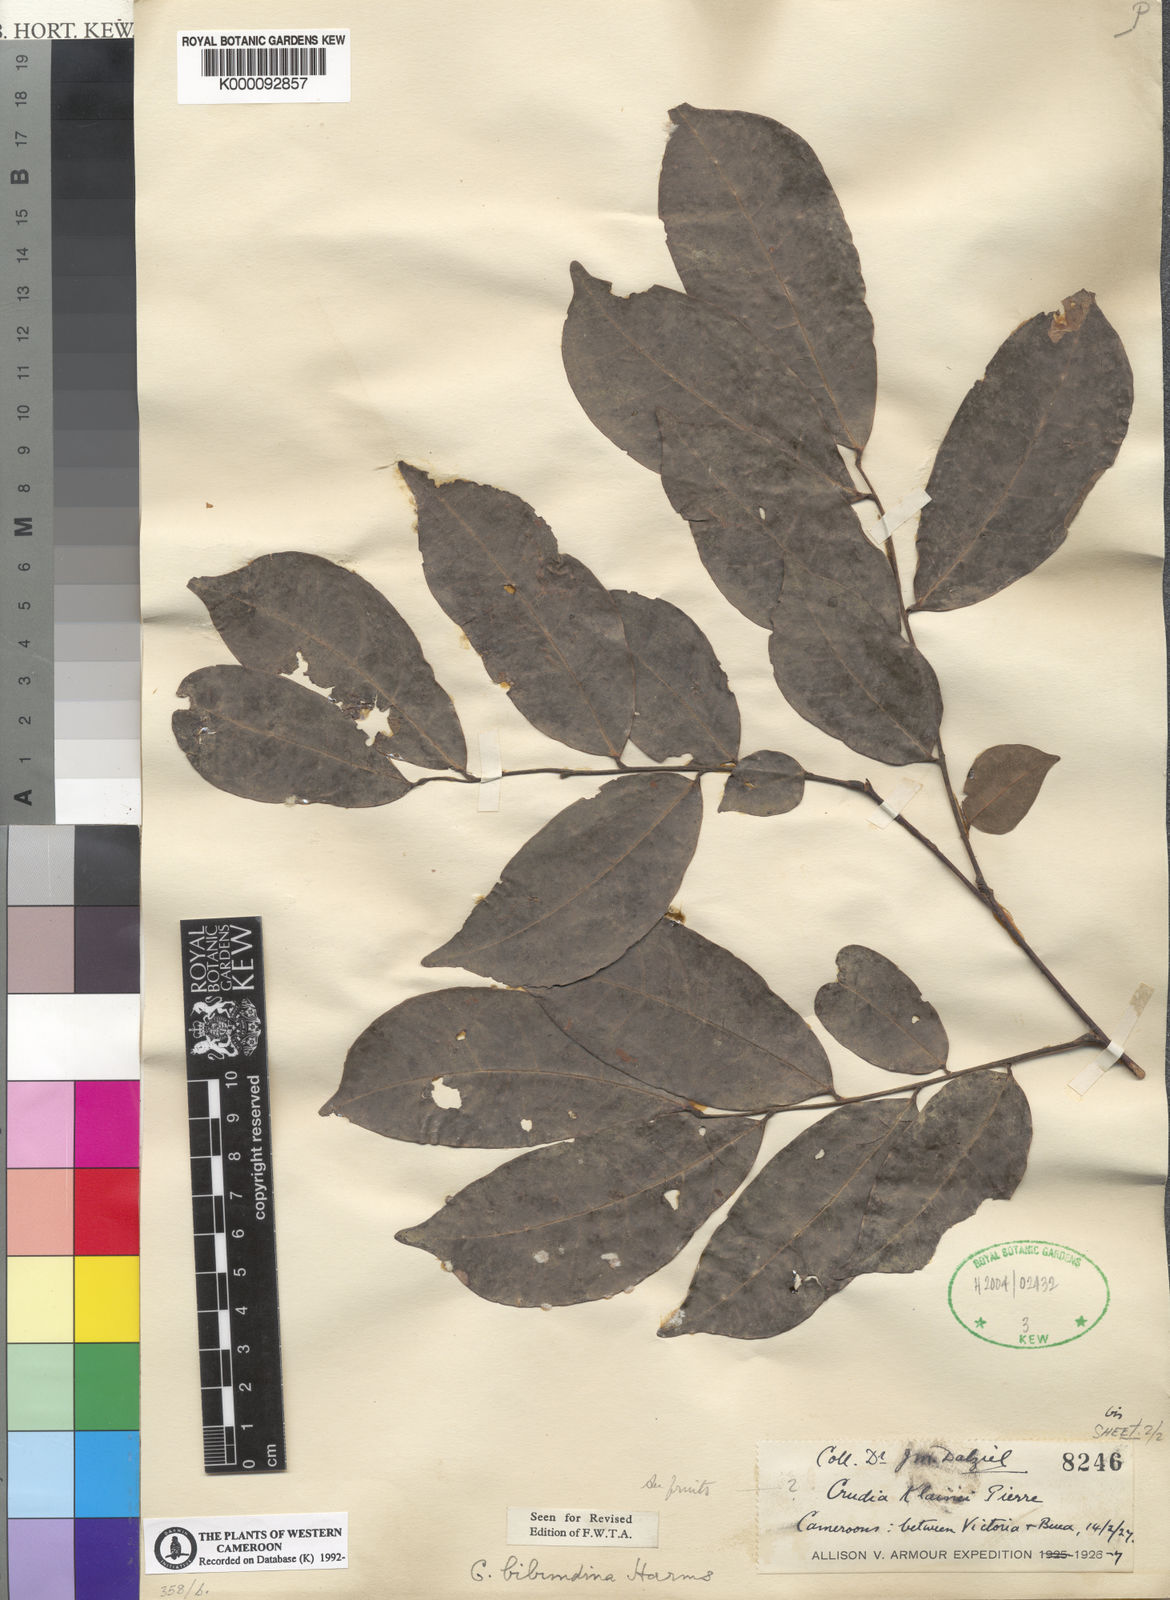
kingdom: Plantae
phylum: Tracheophyta
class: Magnoliopsida
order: Fabales
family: Fabaceae
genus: Crudia
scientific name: Crudia
